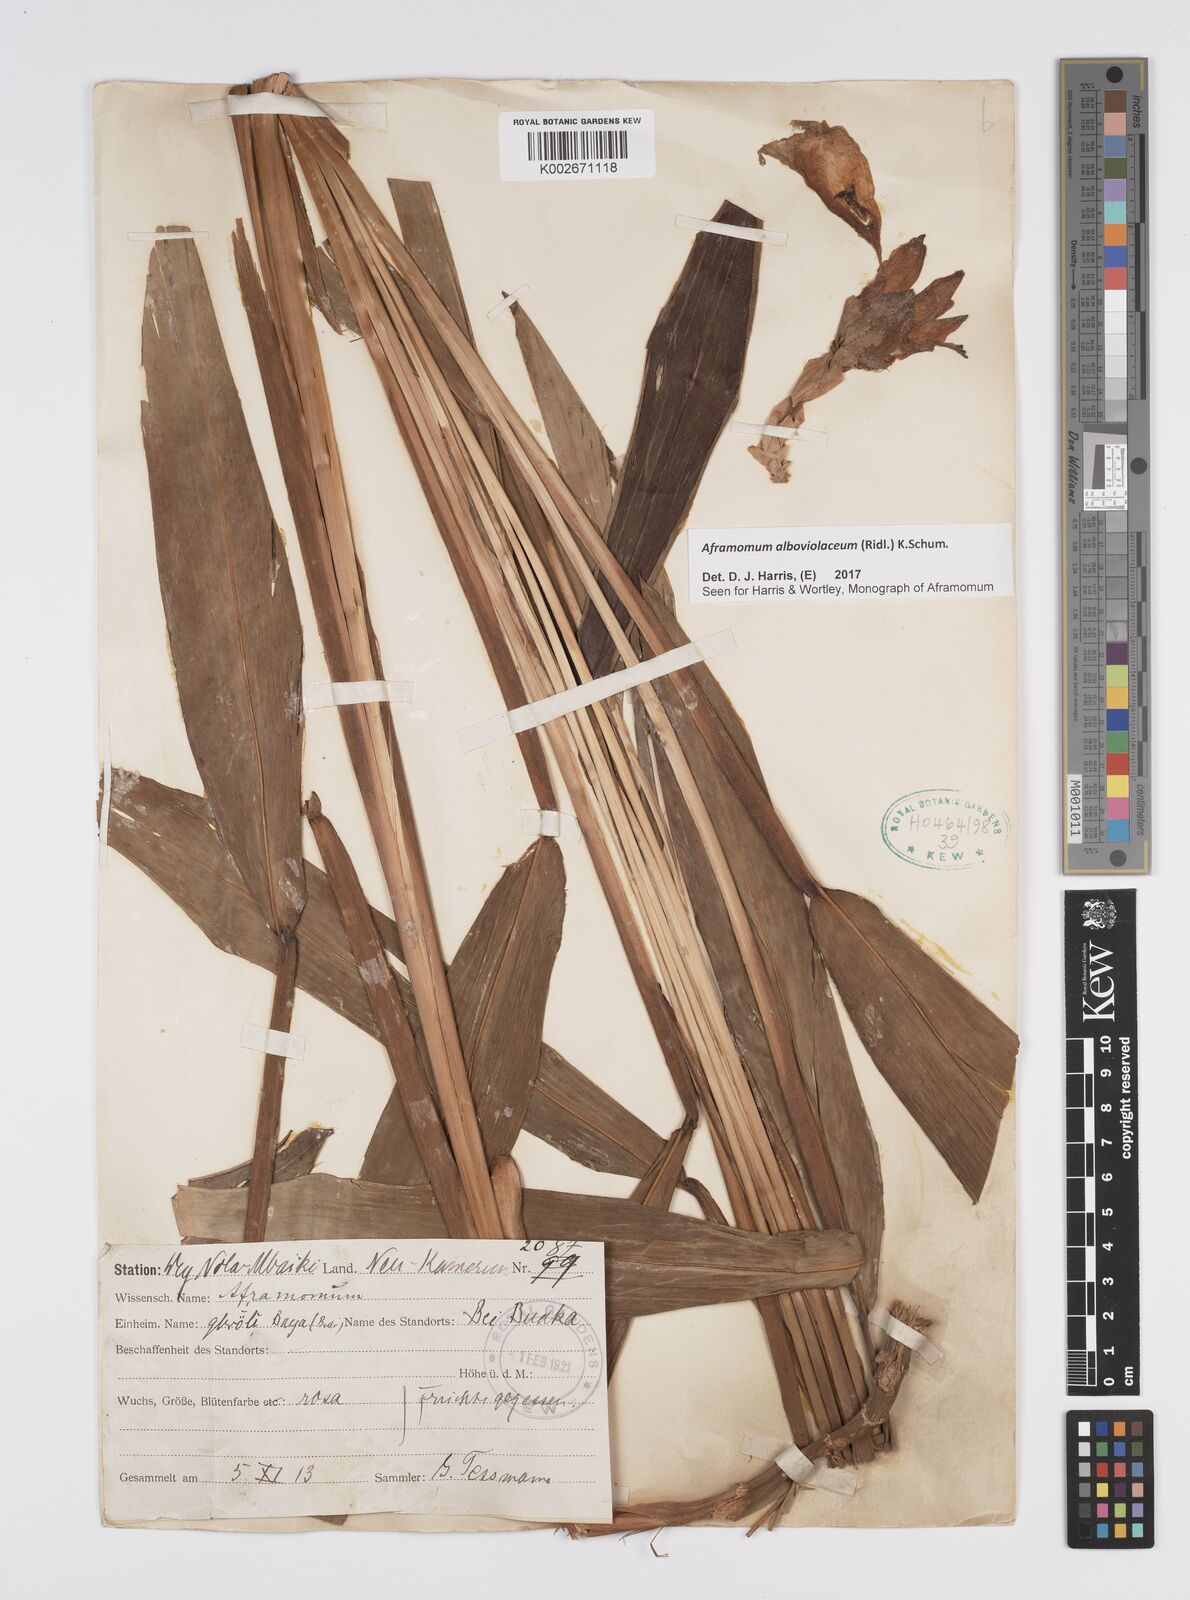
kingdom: Plantae
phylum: Tracheophyta
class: Liliopsida
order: Zingiberales
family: Zingiberaceae
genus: Aframomum
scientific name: Aframomum alboviolaceum
